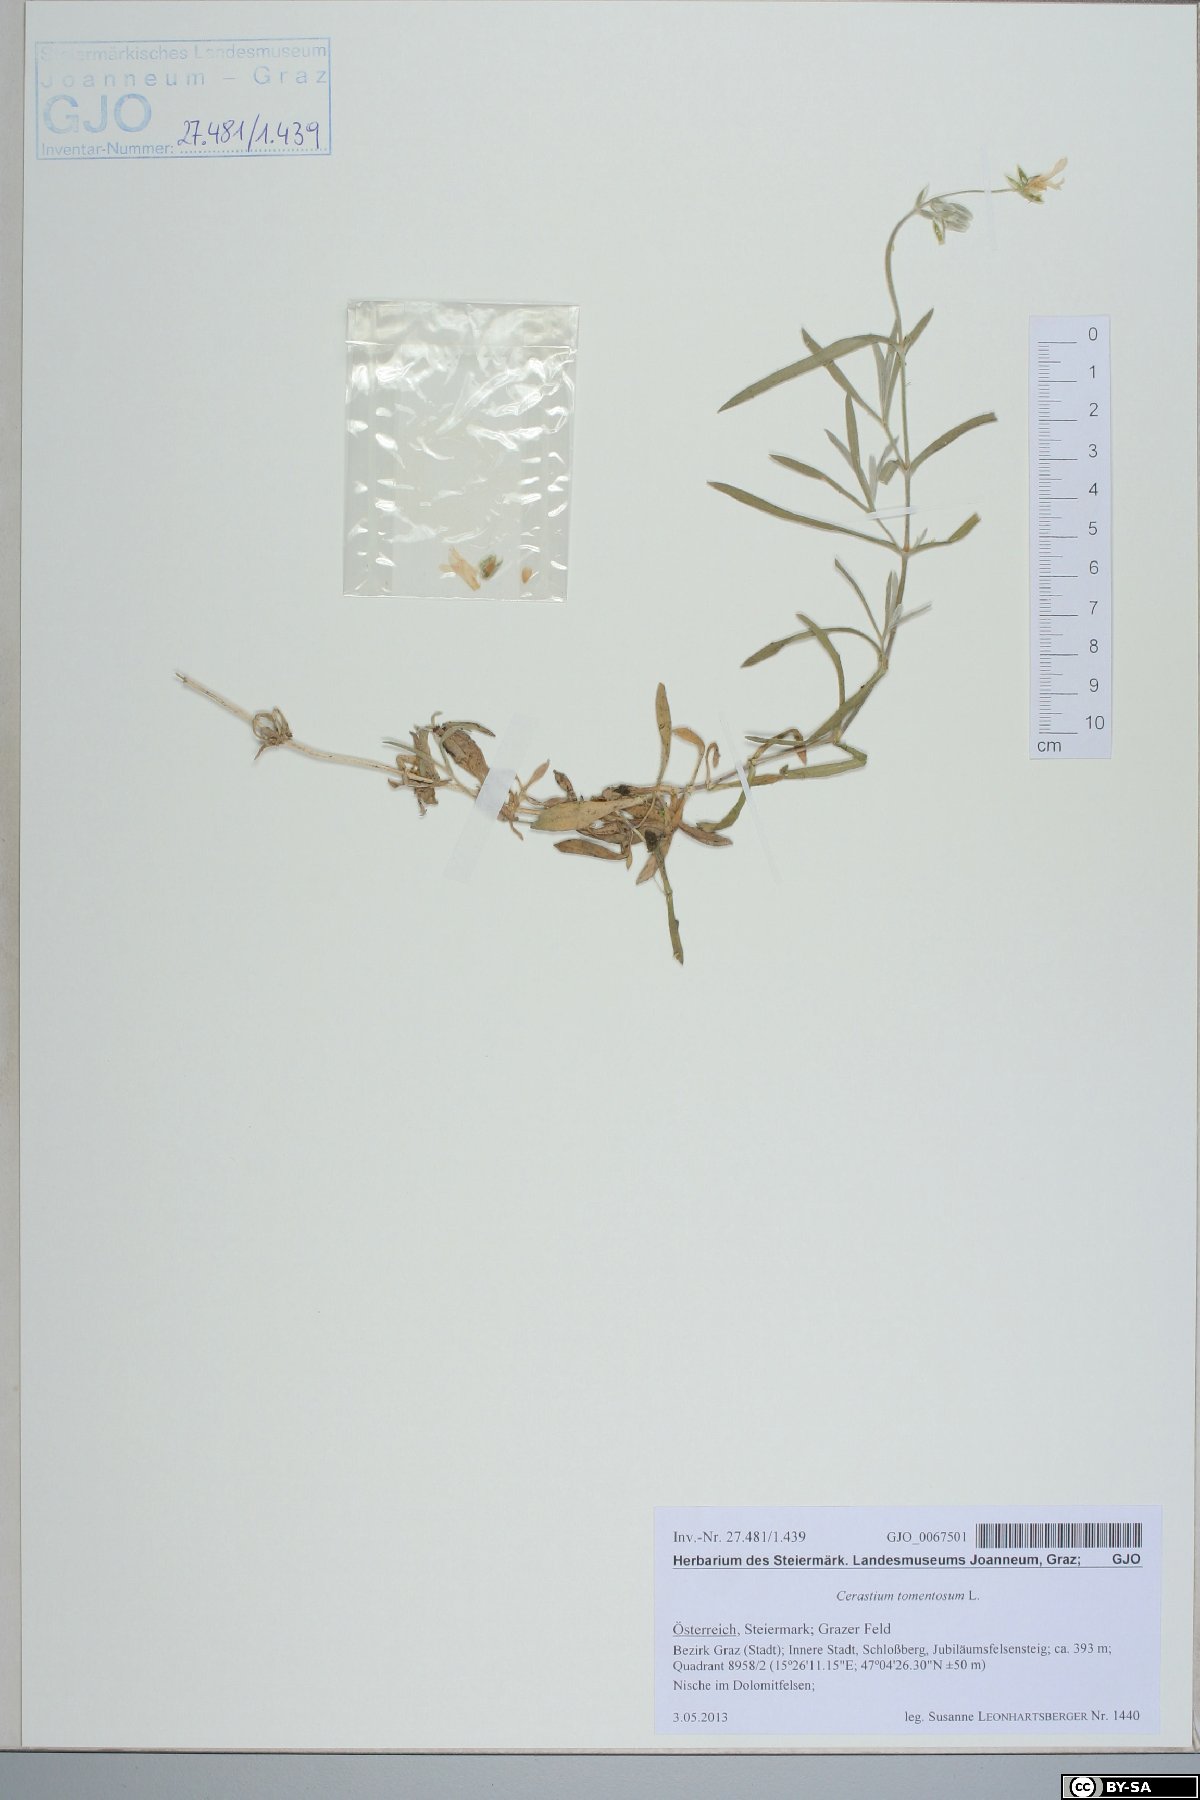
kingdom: Plantae
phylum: Tracheophyta
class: Magnoliopsida
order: Caryophyllales
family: Caryophyllaceae
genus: Cerastium
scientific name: Cerastium tomentosum
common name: Snow-in-summer
